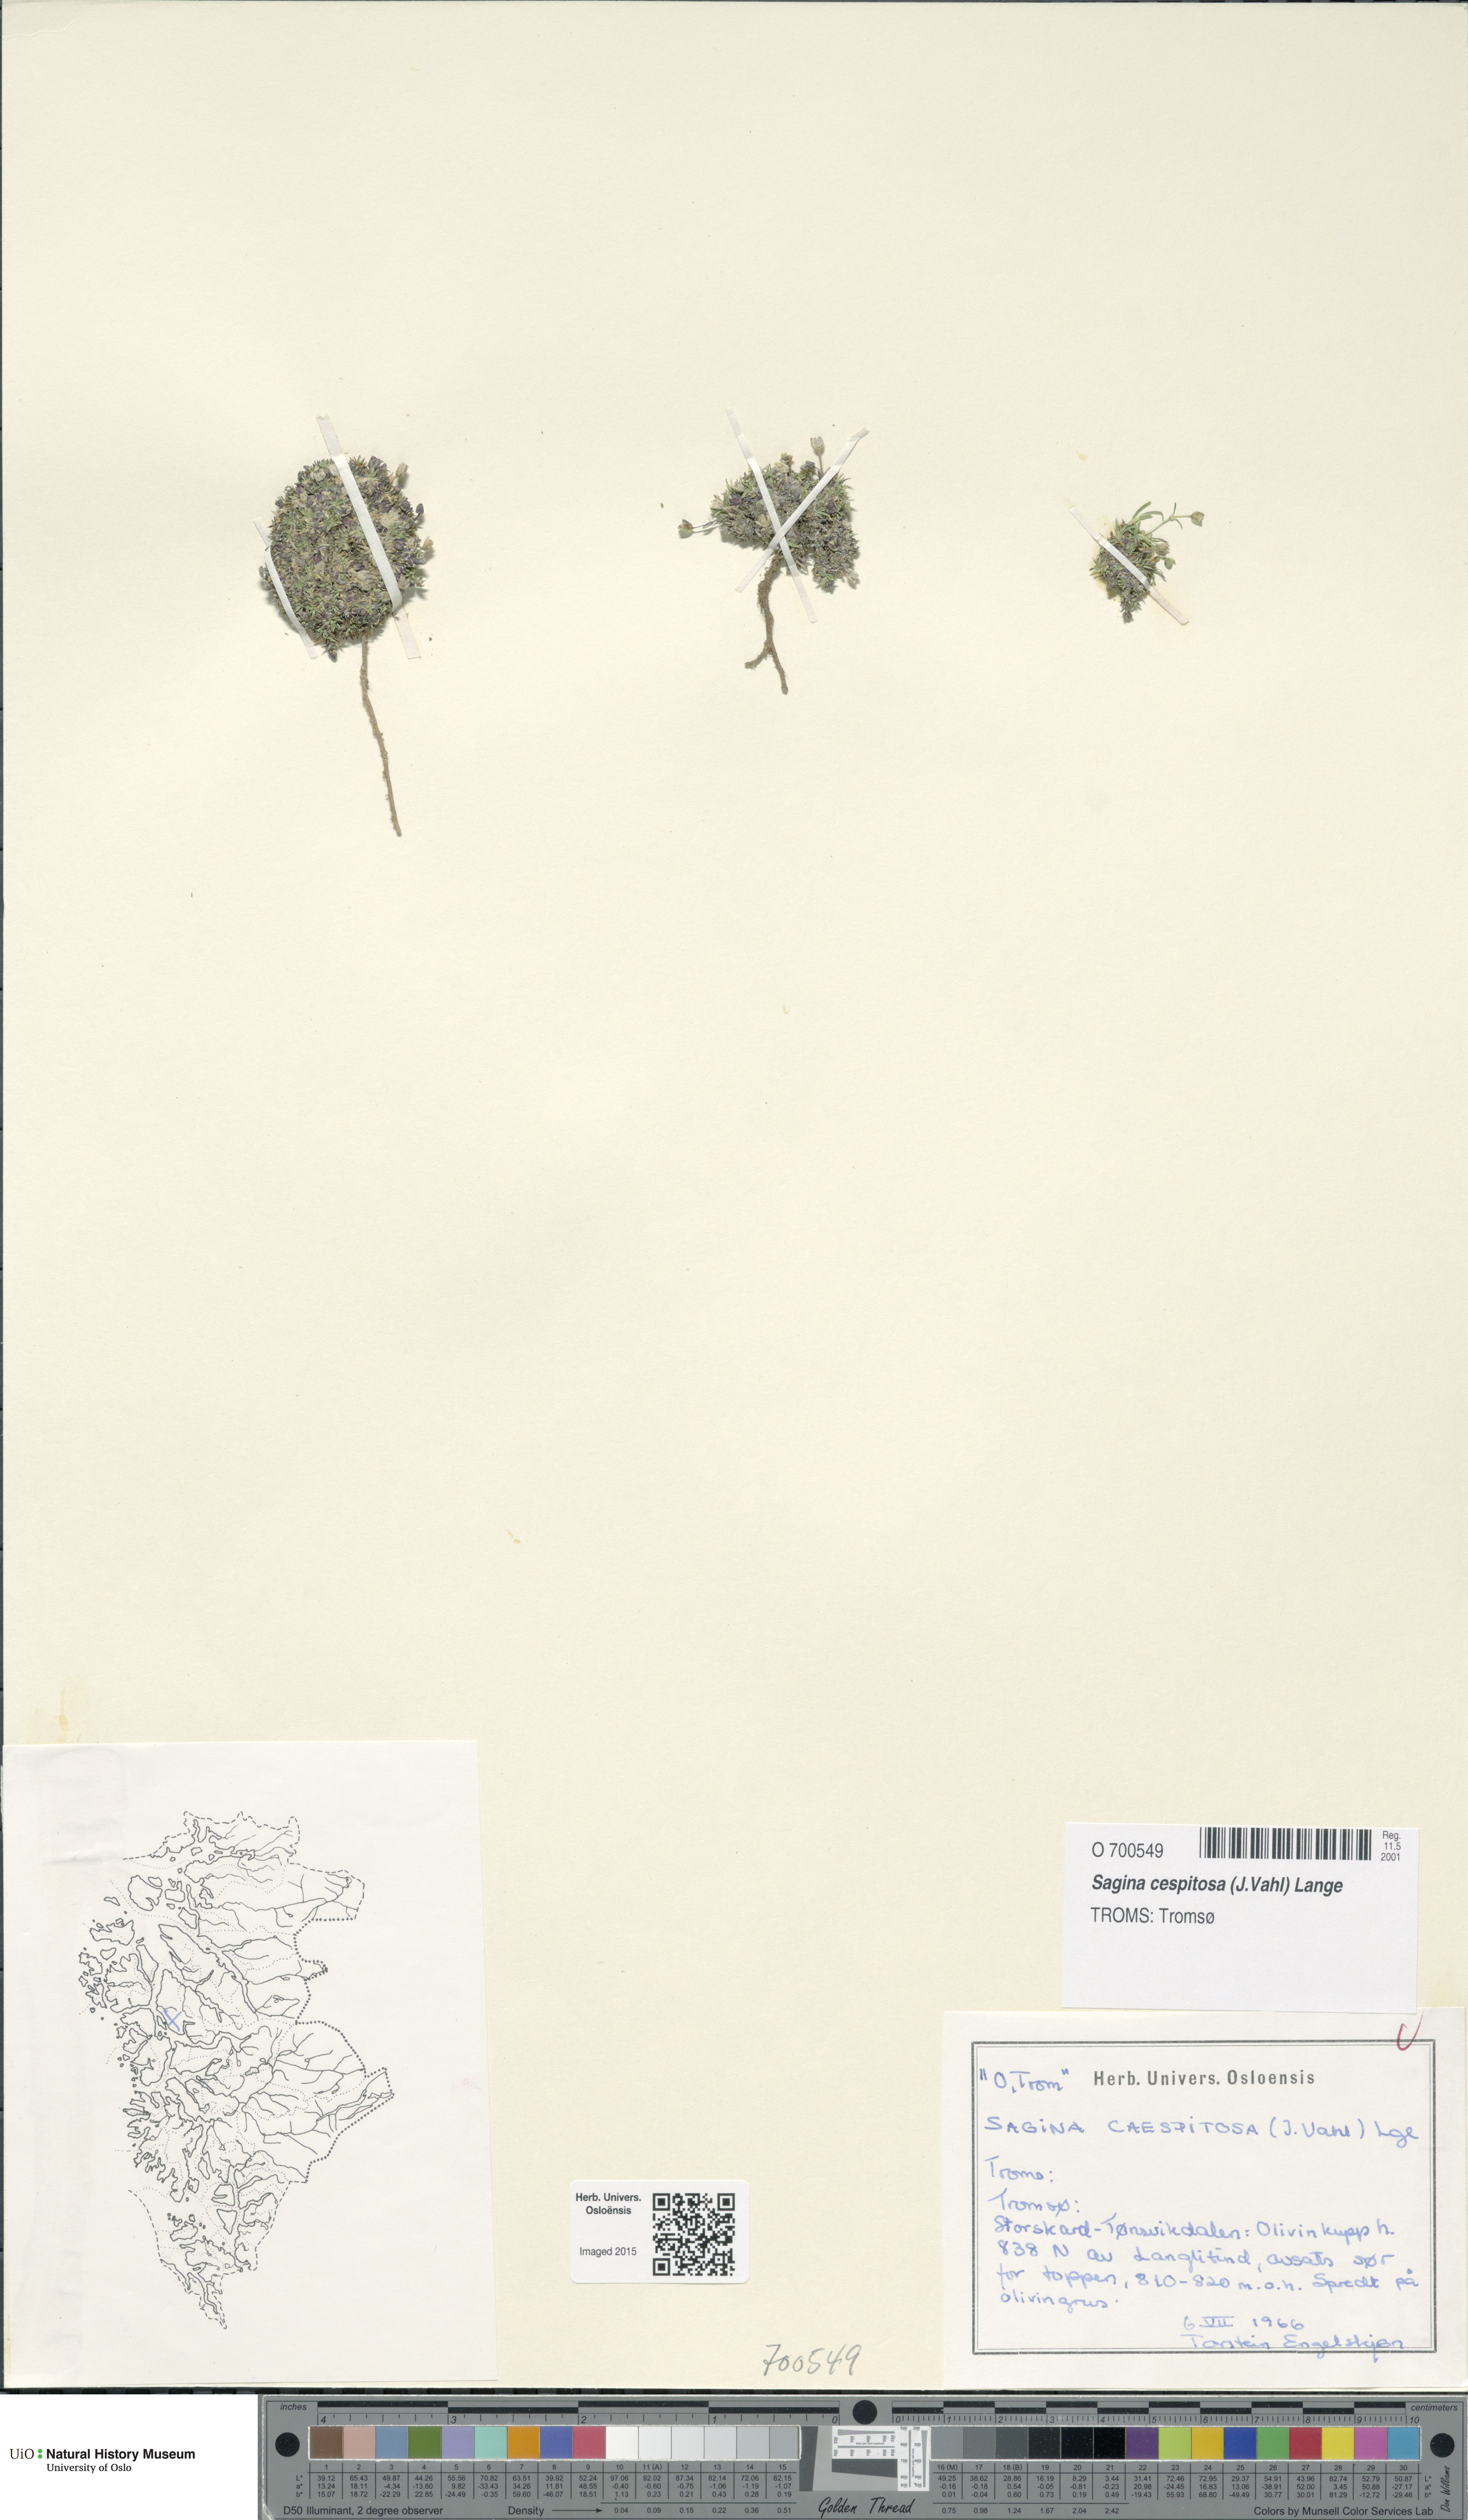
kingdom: Plantae
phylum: Tracheophyta
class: Magnoliopsida
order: Caryophyllales
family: Caryophyllaceae
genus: Sagina
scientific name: Sagina caespitosa
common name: Tufted pearlwort
